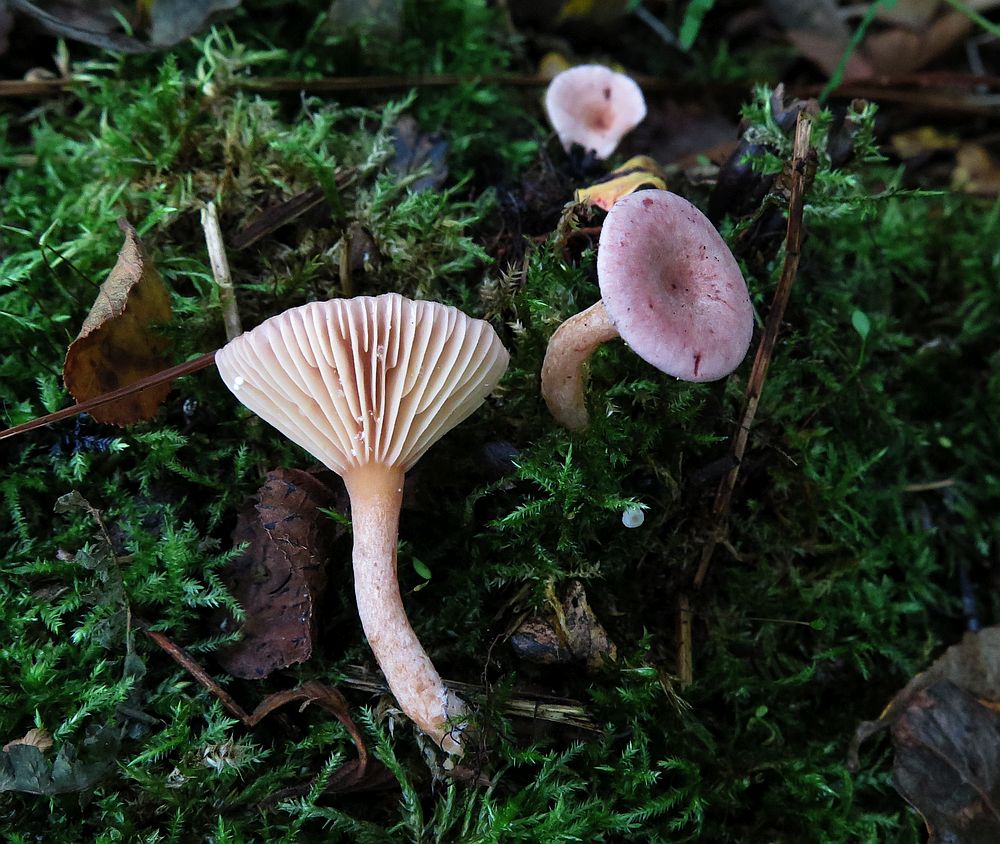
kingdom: Fungi
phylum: Basidiomycota
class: Agaricomycetes
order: Russulales
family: Russulaceae
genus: Lactarius
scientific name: Lactarius lilacinus
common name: lilla mælkehat
